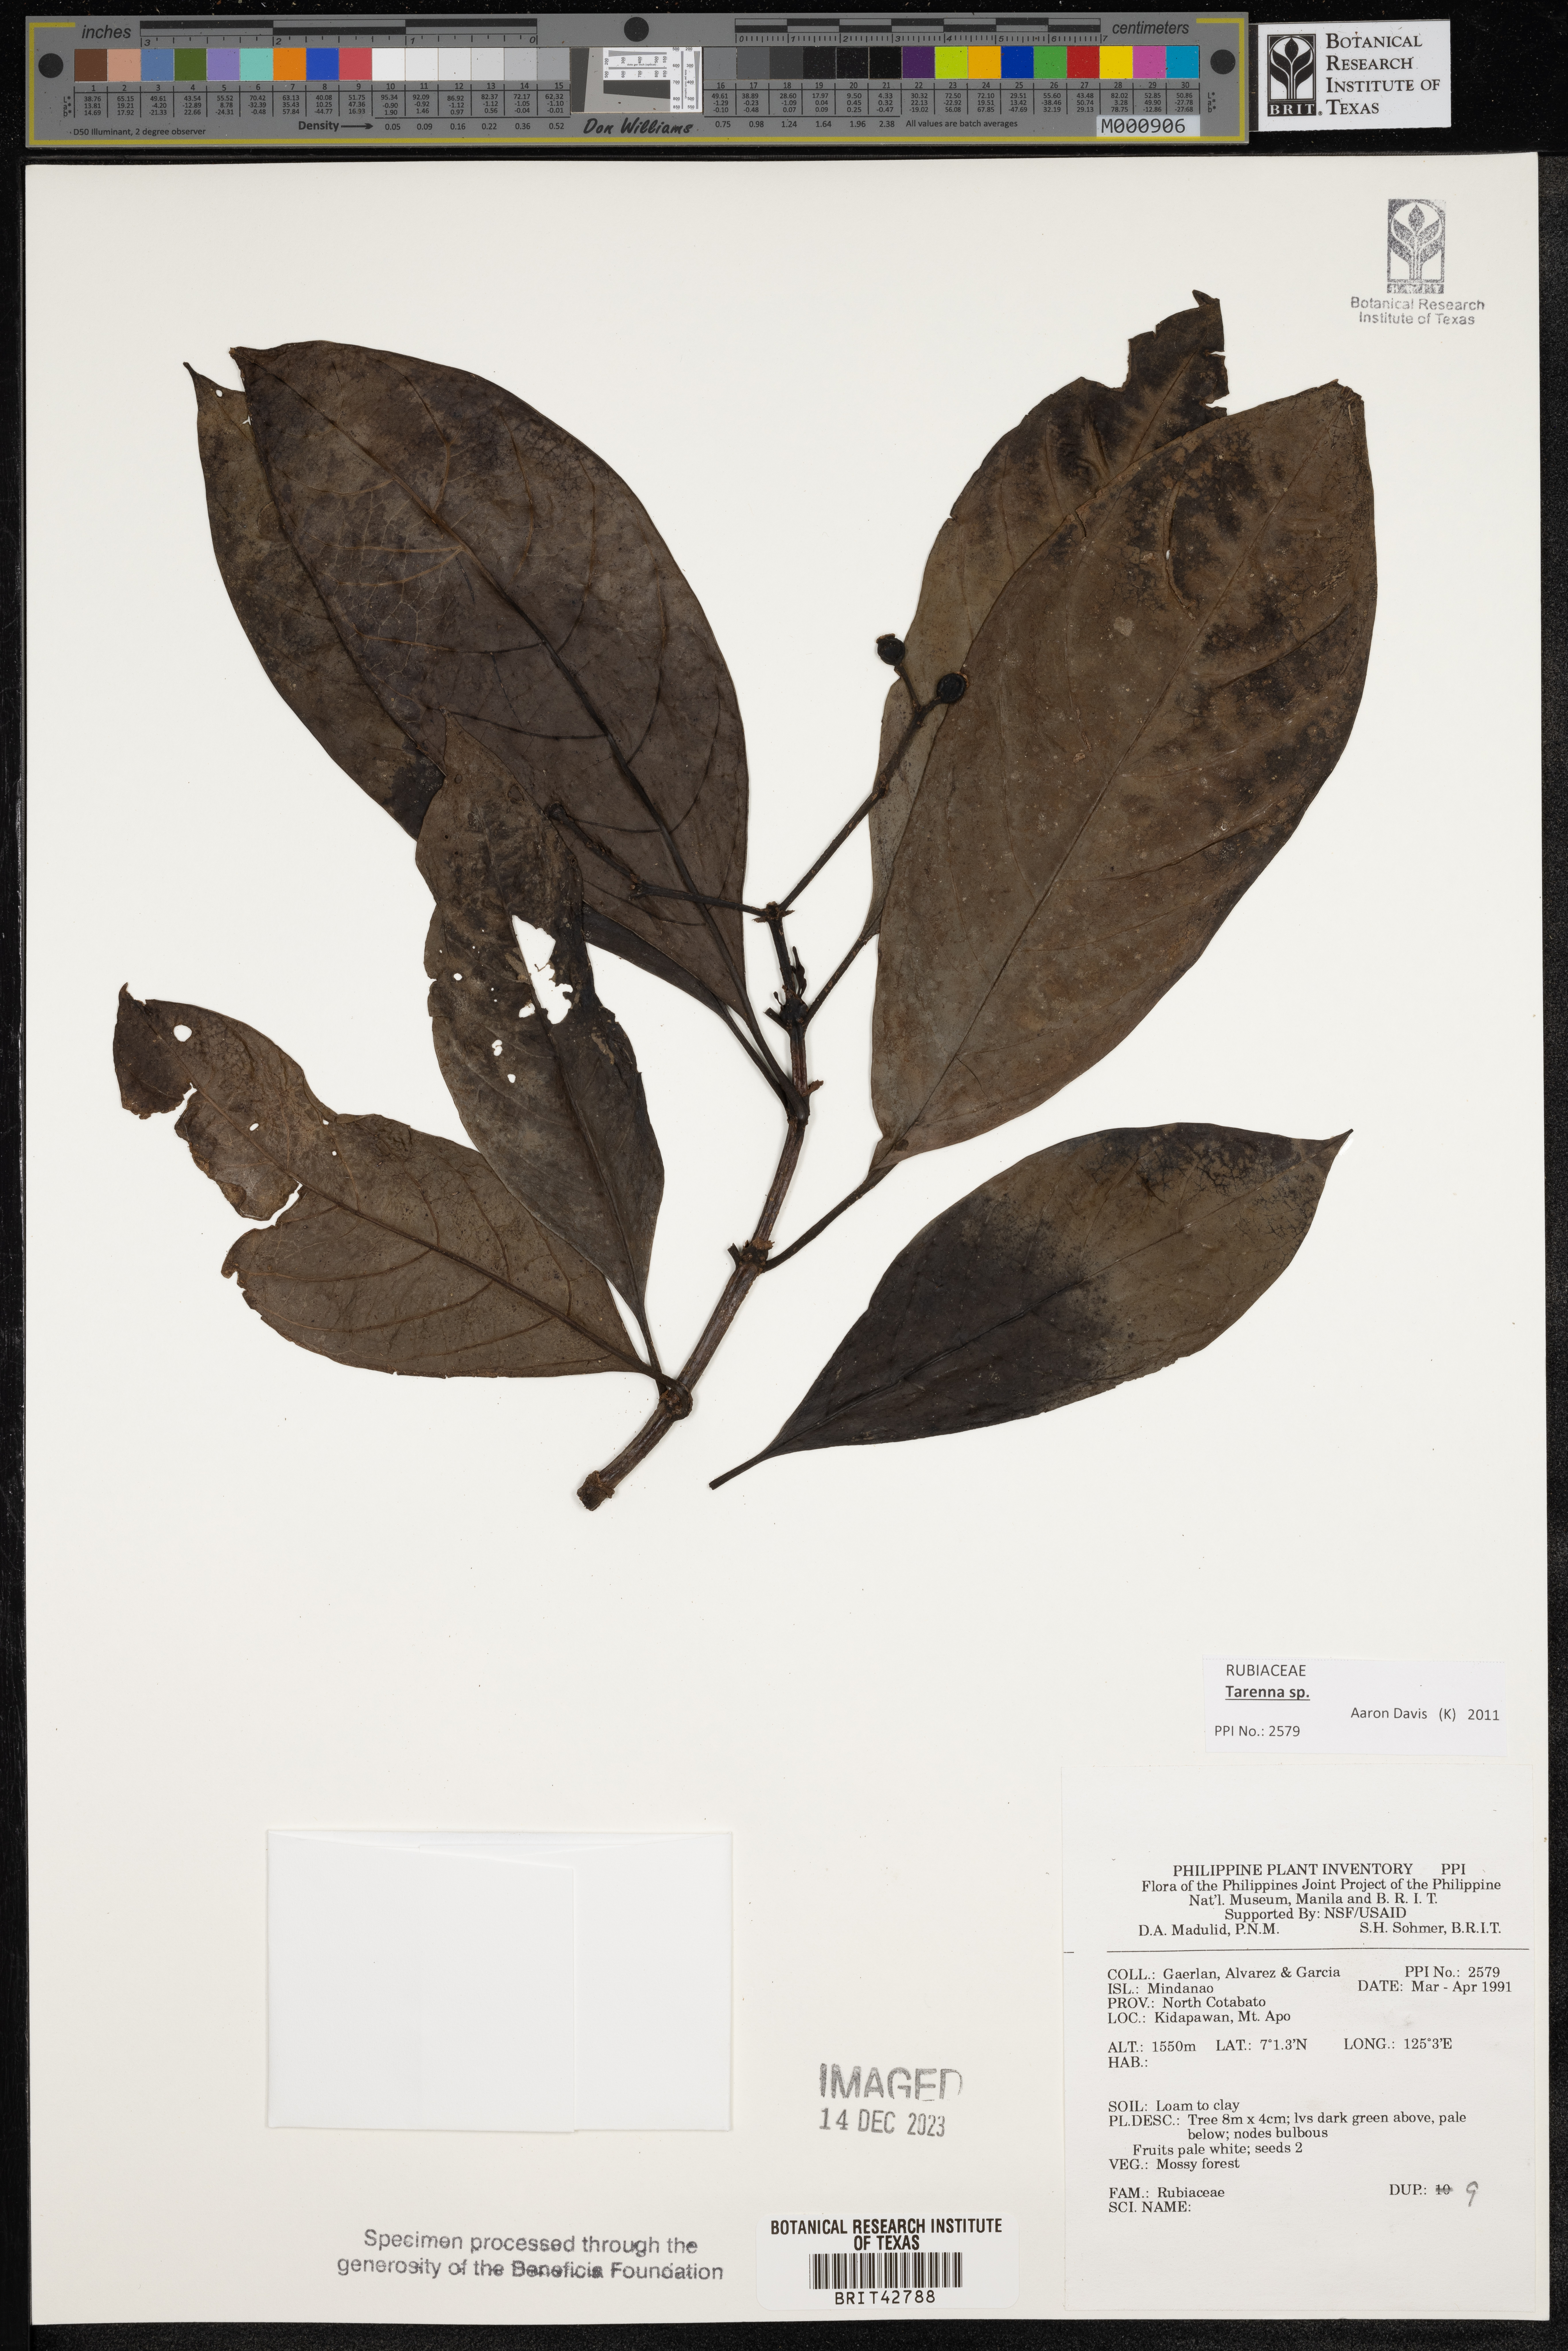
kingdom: Plantae
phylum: Tracheophyta
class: Magnoliopsida
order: Gentianales
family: Rubiaceae
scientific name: Rubiaceae
